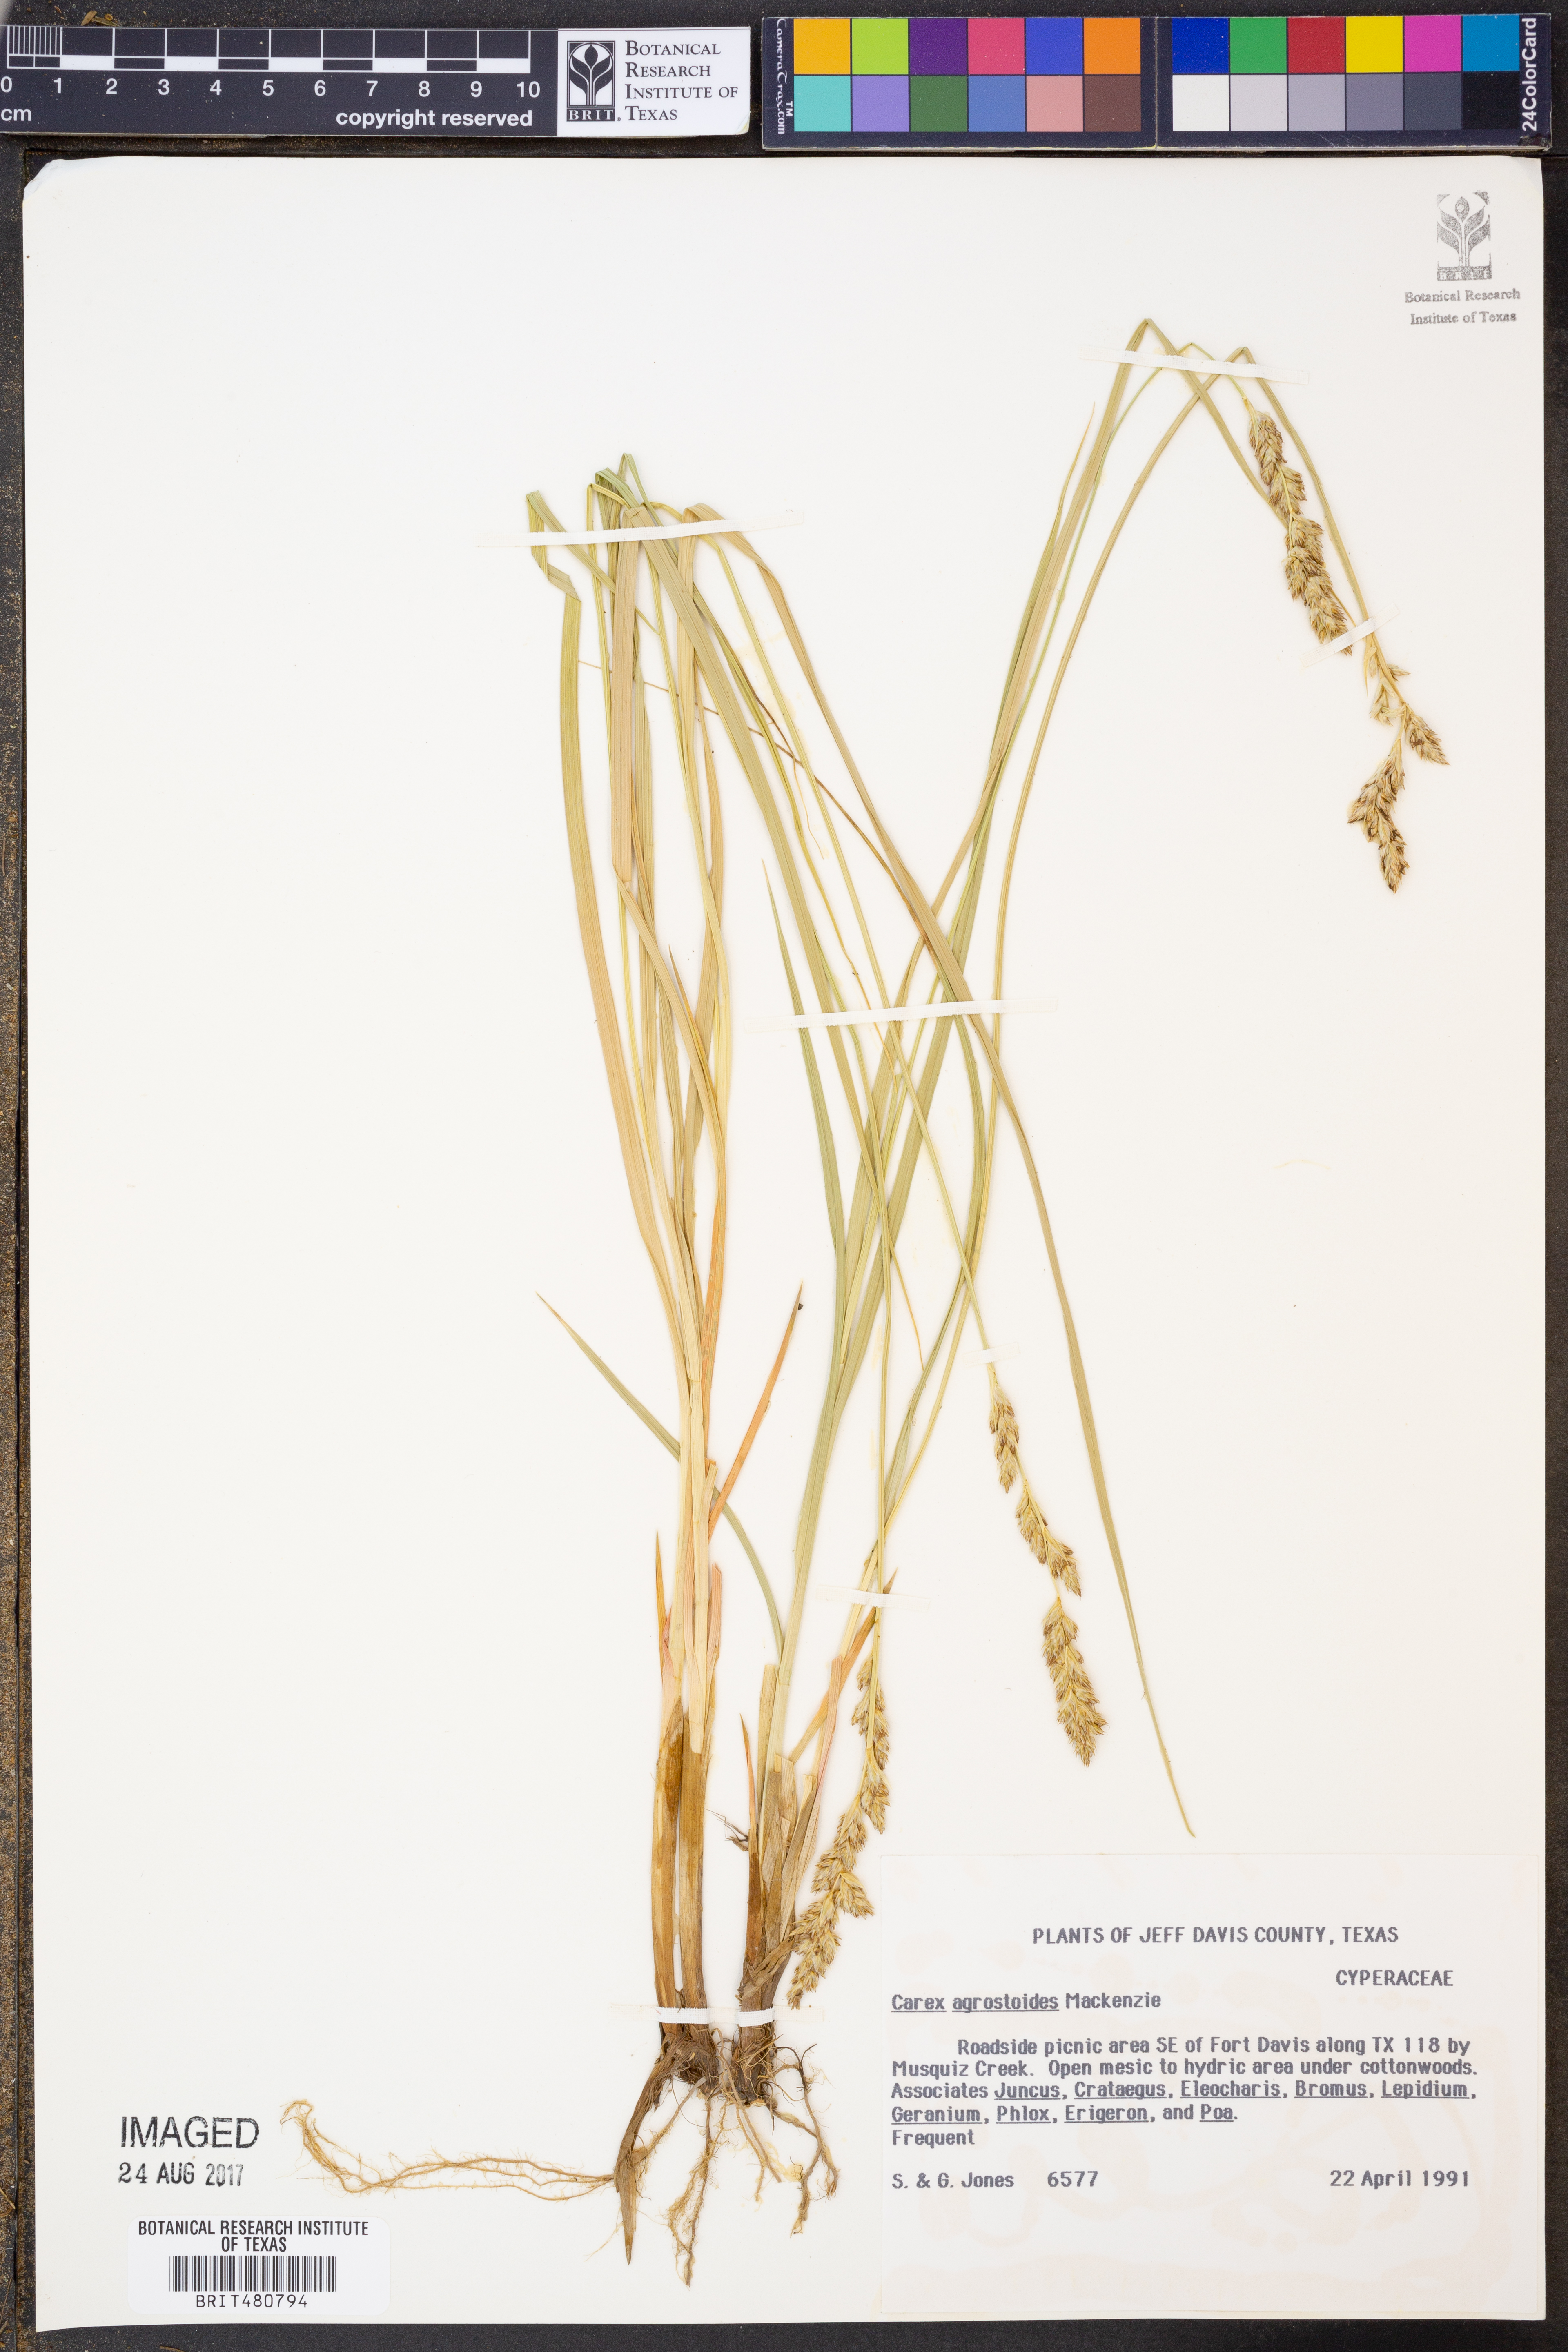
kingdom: Plantae
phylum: Tracheophyta
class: Liliopsida
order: Poales
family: Cyperaceae
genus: Carex
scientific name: Carex alma
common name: Alma sedge
